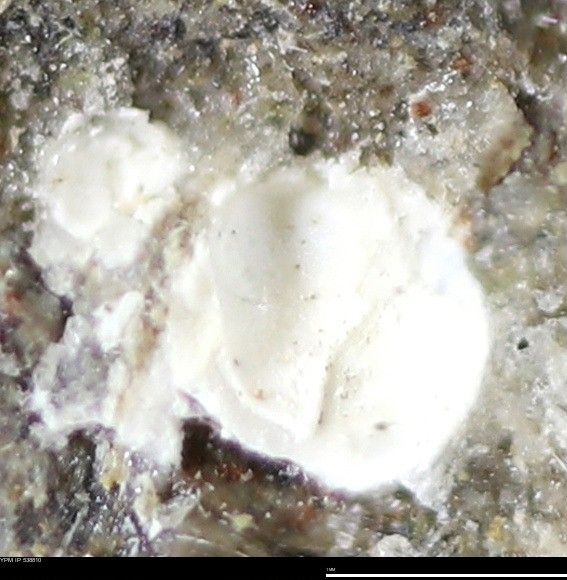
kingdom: Animalia
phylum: Mollusca
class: Bivalvia
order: Myida
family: Corbulidae
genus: Corbulamella
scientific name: Corbulamella
